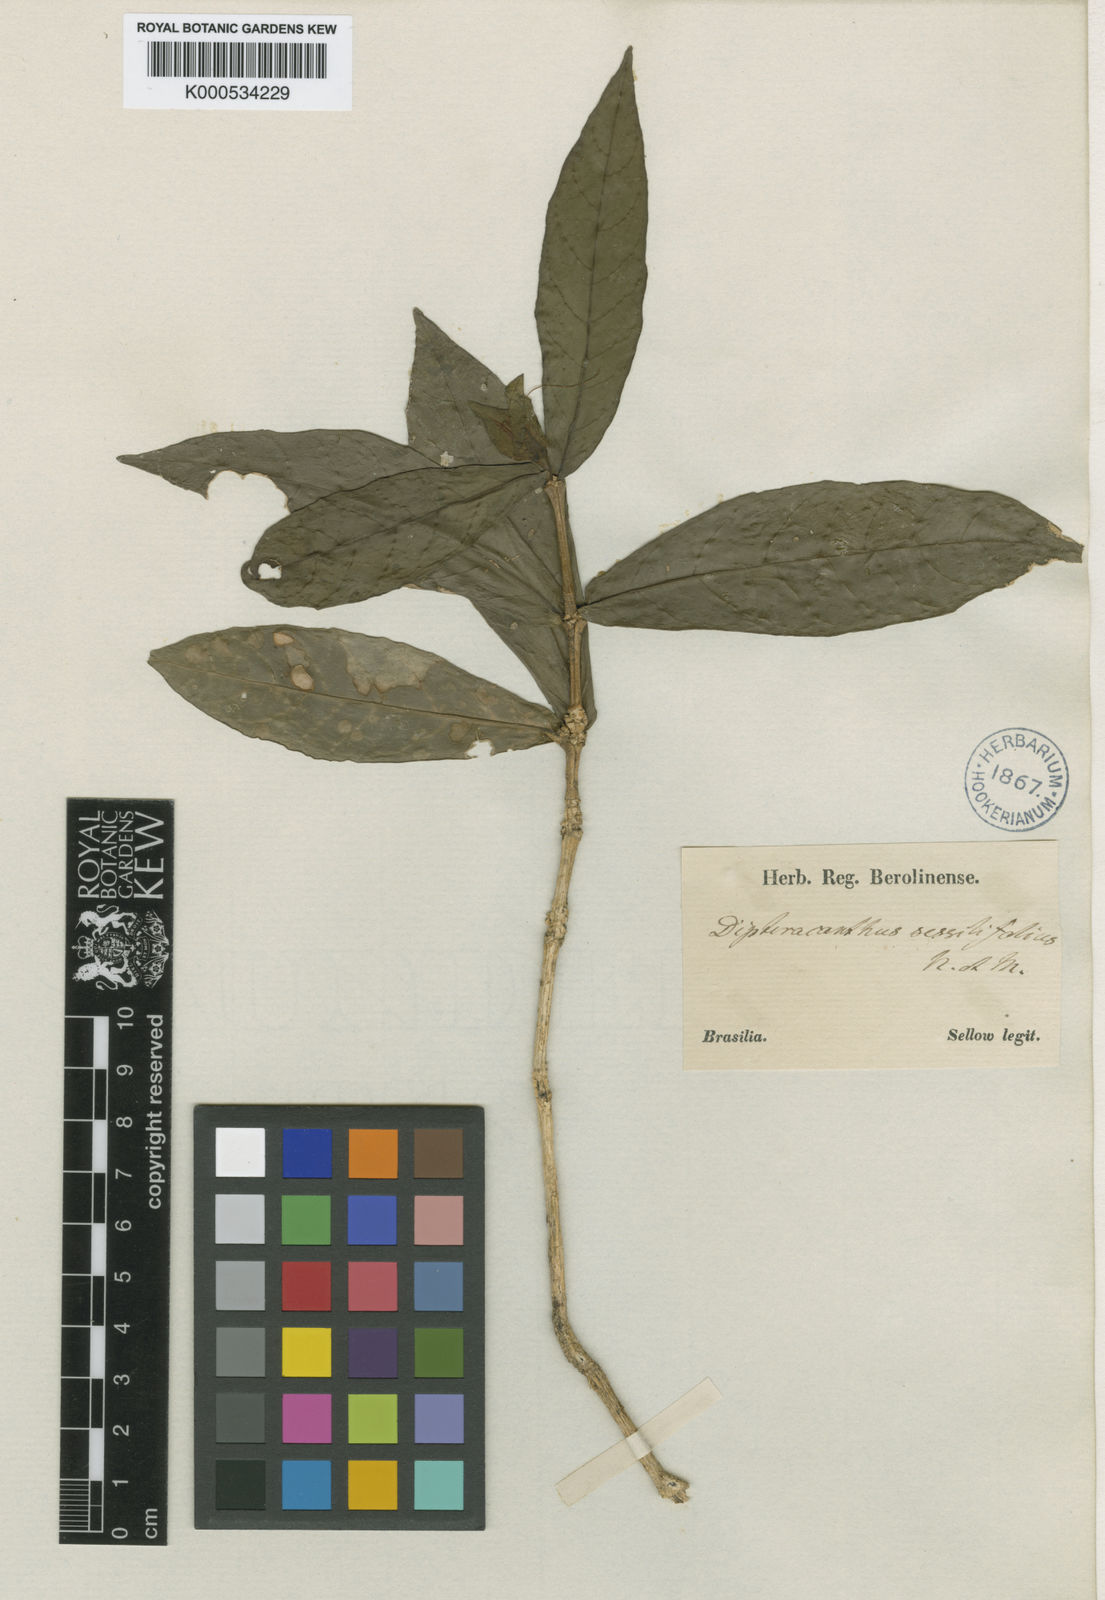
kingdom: Plantae
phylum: Tracheophyta
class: Magnoliopsida
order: Lamiales
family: Acanthaceae
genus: Ruellia
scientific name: Ruellia subsessilis
